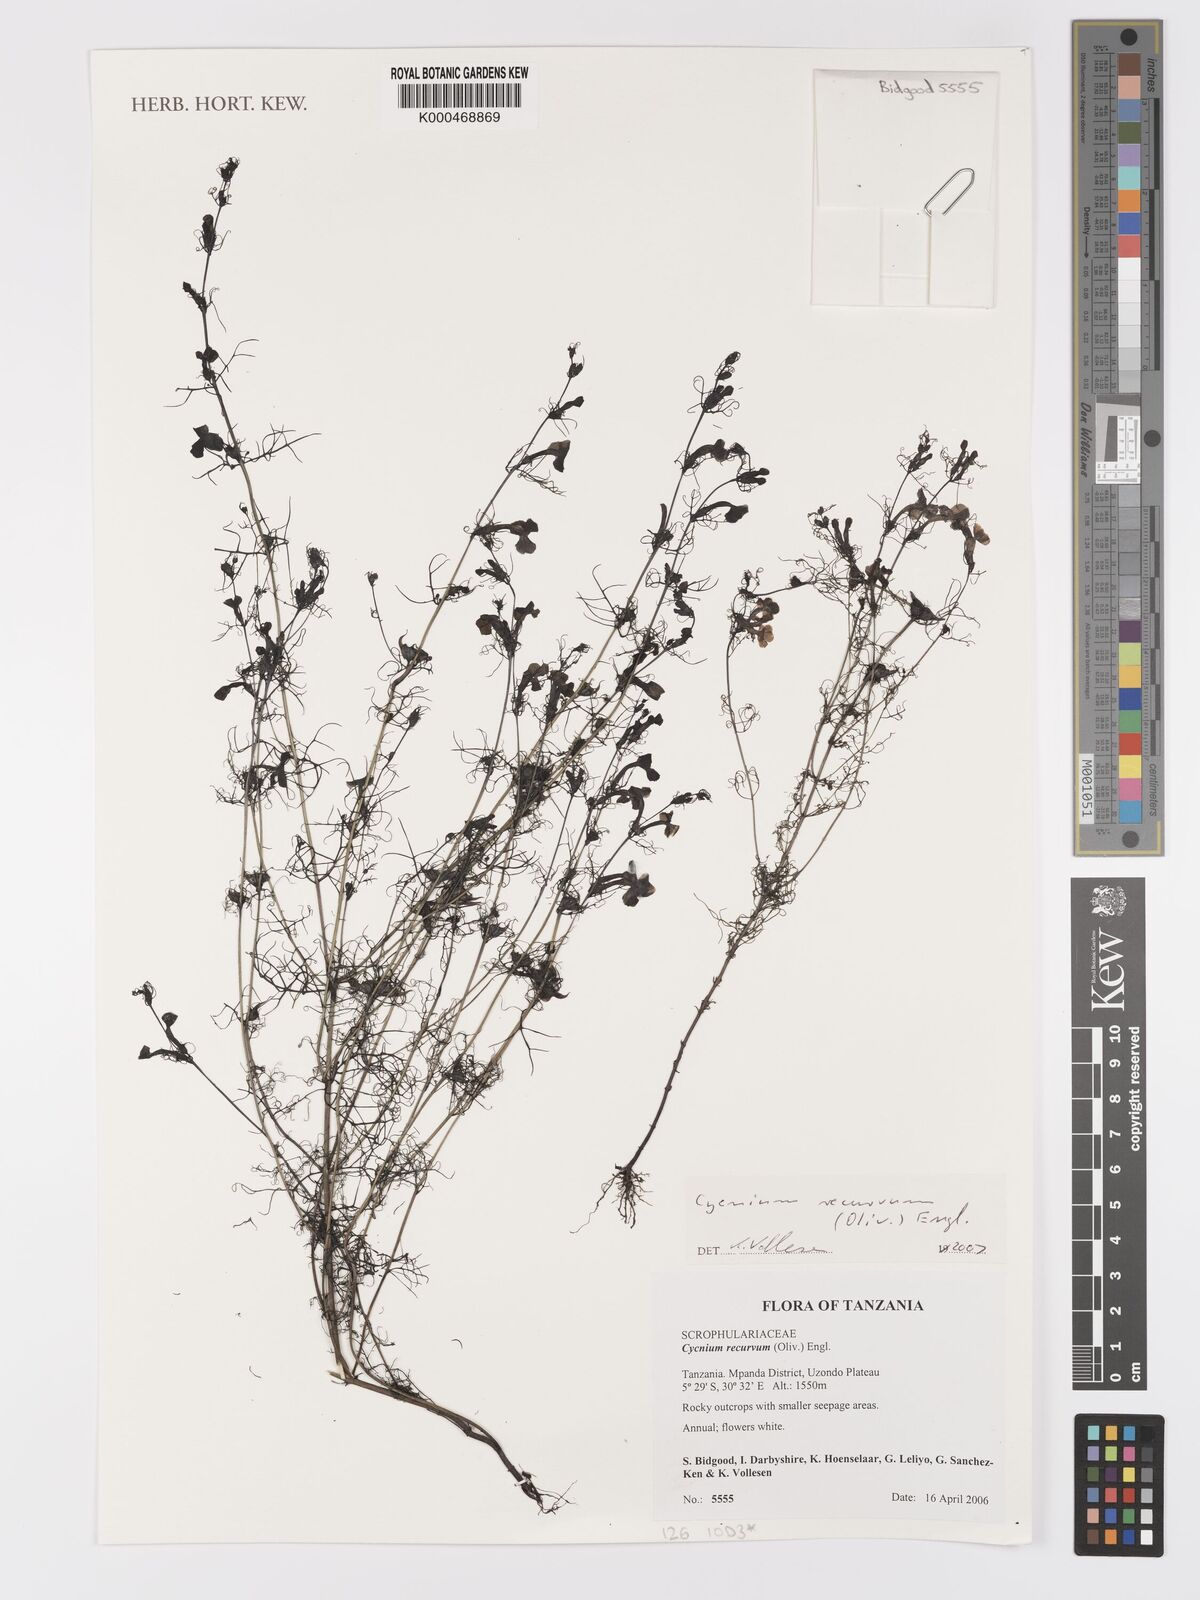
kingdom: Plantae
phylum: Tracheophyta
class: Magnoliopsida
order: Lamiales
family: Orobanchaceae
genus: Cycnium
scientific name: Cycnium recurvum
